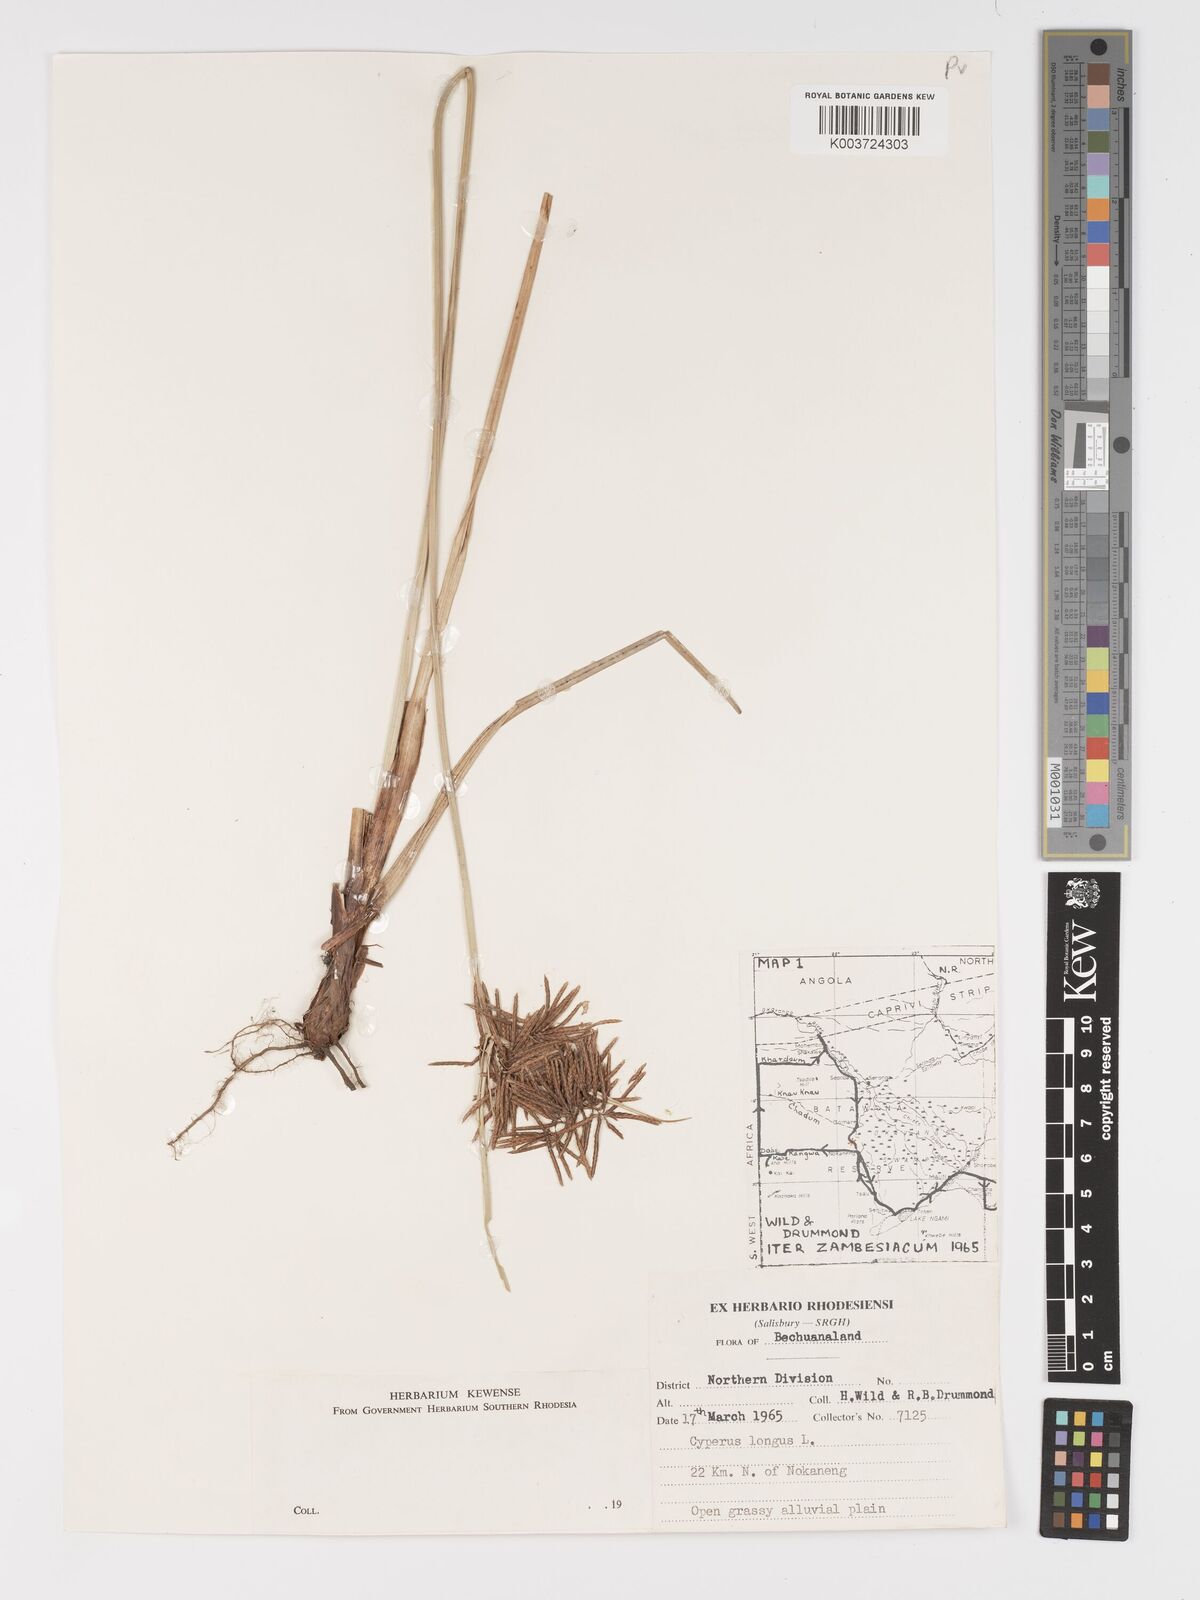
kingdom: Plantae
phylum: Tracheophyta
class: Liliopsida
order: Poales
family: Cyperaceae
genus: Cyperus
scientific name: Cyperus
